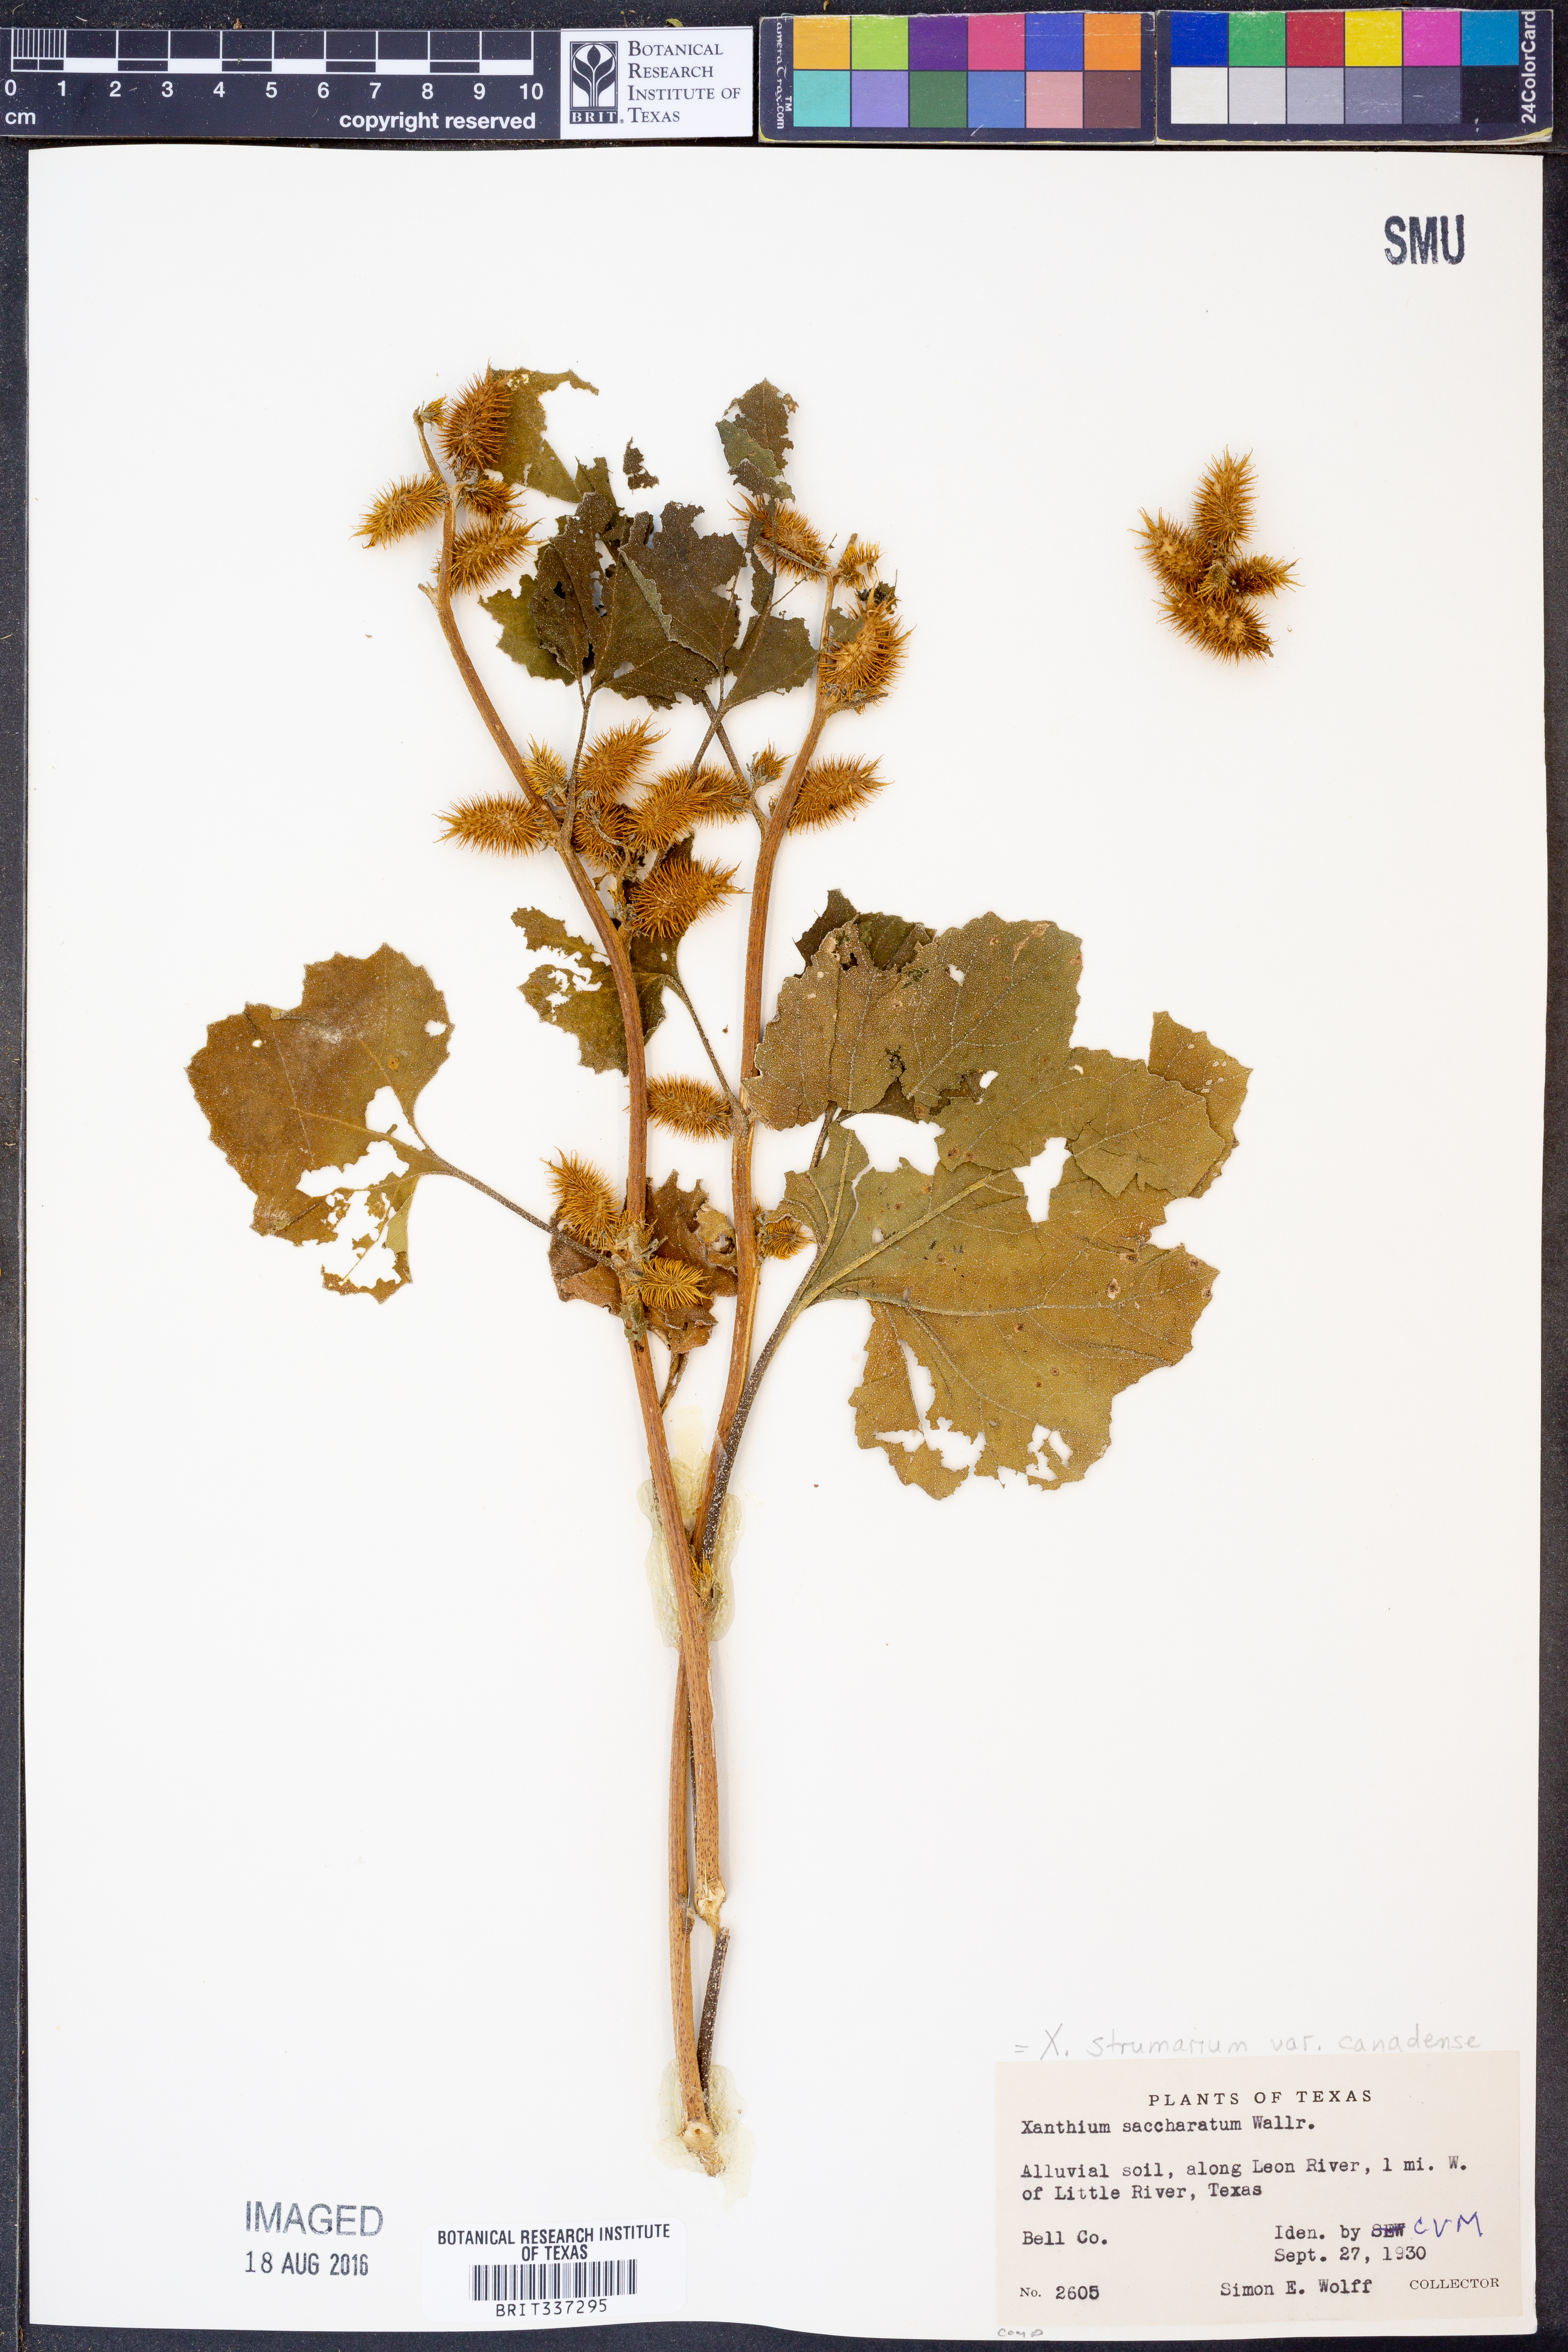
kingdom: Plantae
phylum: Tracheophyta
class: Magnoliopsida
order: Asterales
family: Asteraceae
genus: Xanthium
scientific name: Xanthium orientale
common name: Californian burr
